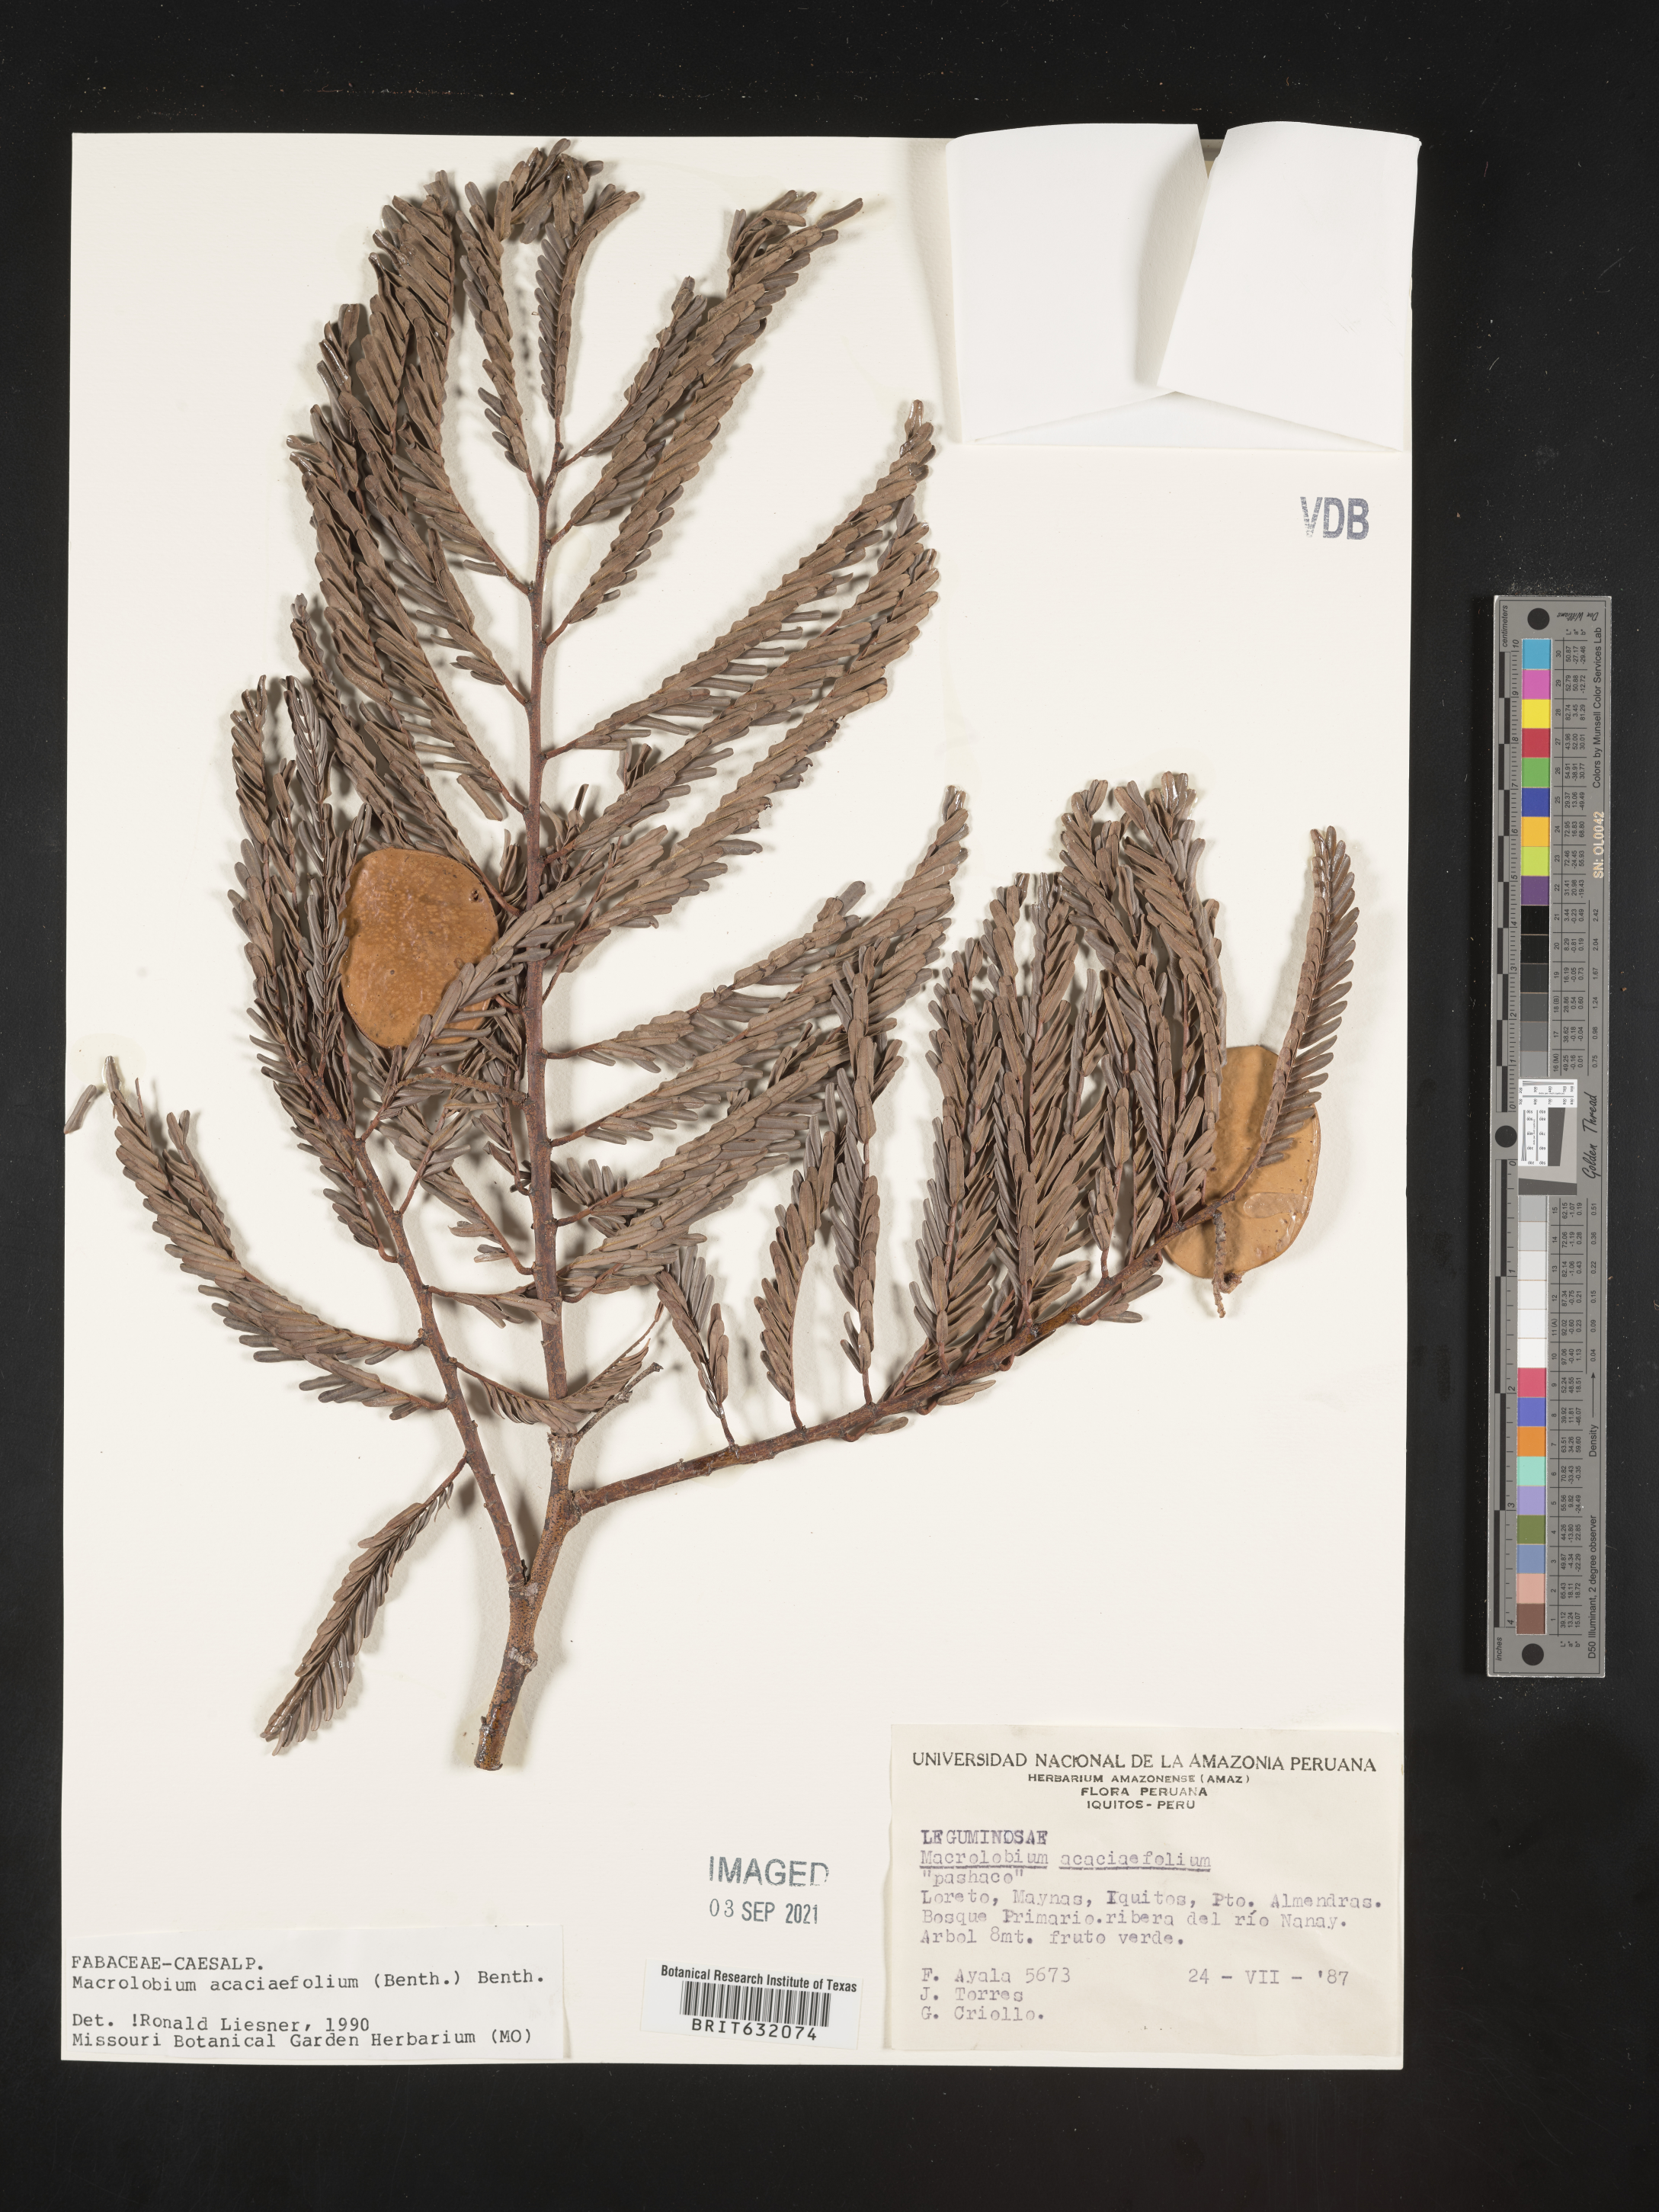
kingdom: Plantae
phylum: Tracheophyta
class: Magnoliopsida
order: Fabales
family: Fabaceae
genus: Macrolobium
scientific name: Macrolobium
